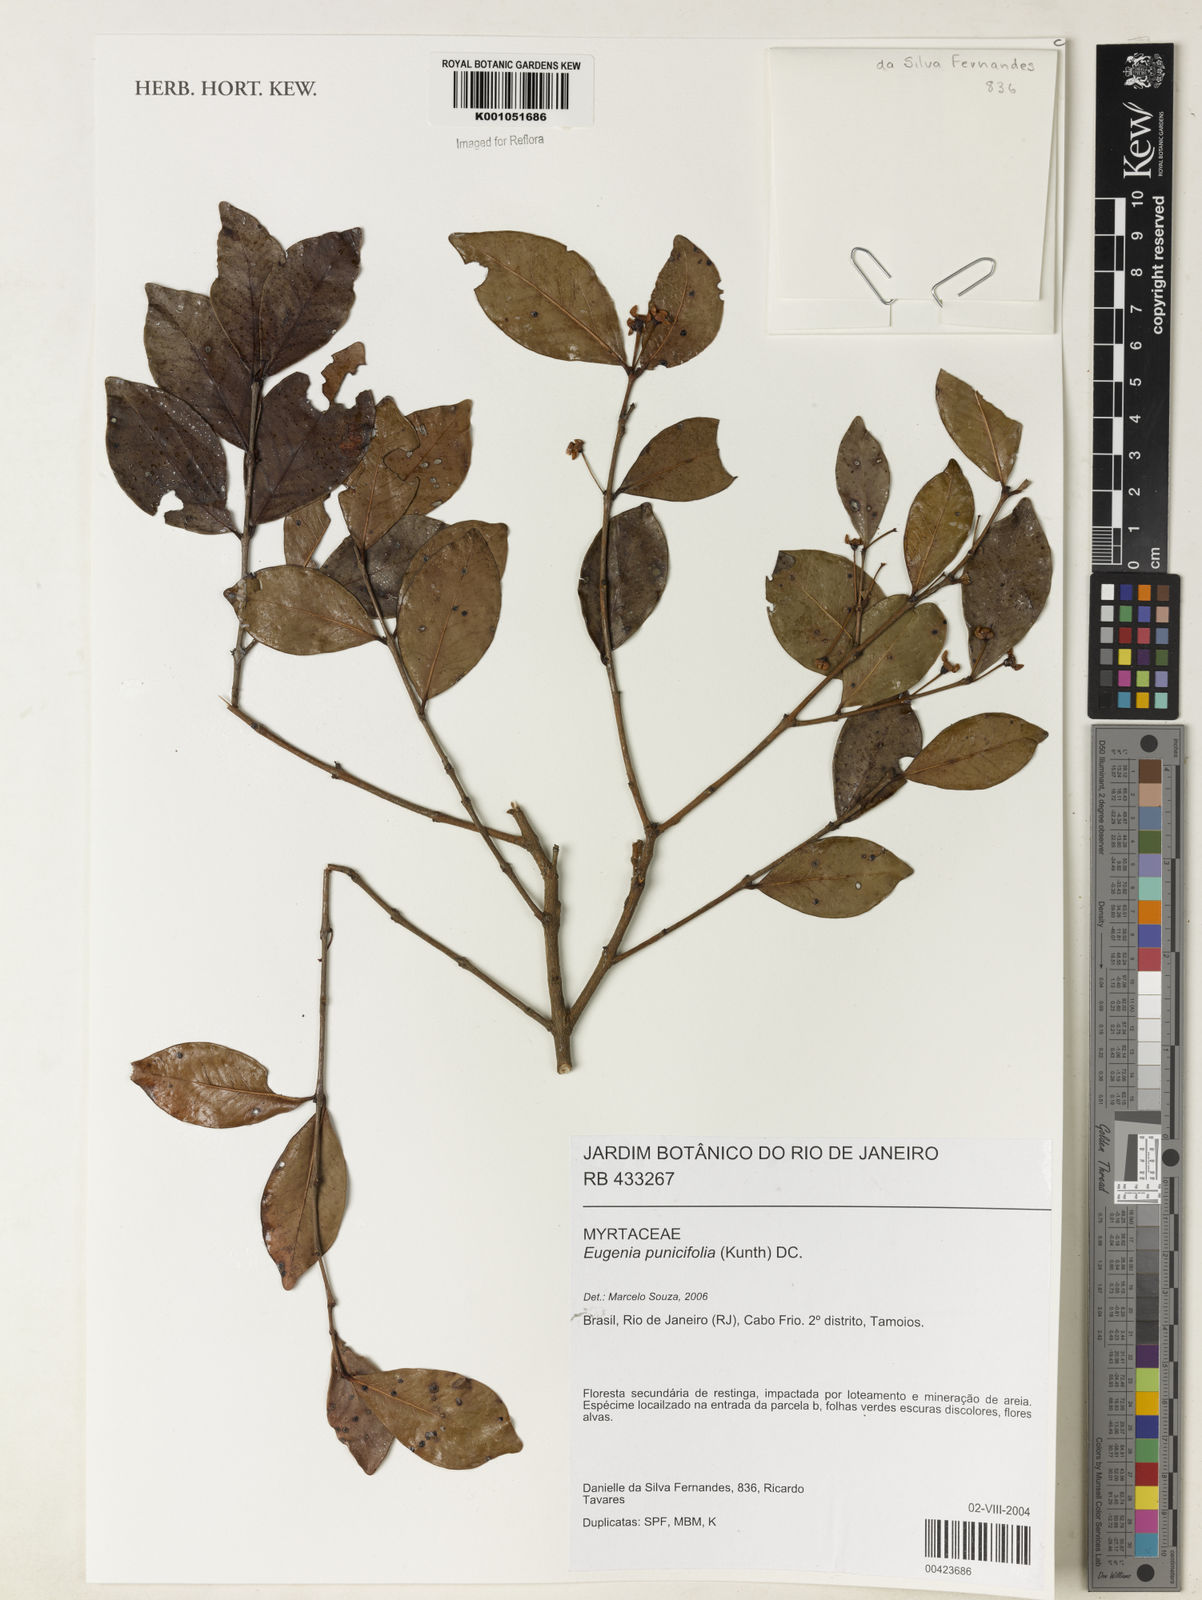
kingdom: Plantae
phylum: Tracheophyta
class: Magnoliopsida
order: Myrtales
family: Myrtaceae
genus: Eugenia
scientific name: Eugenia punicifolia
